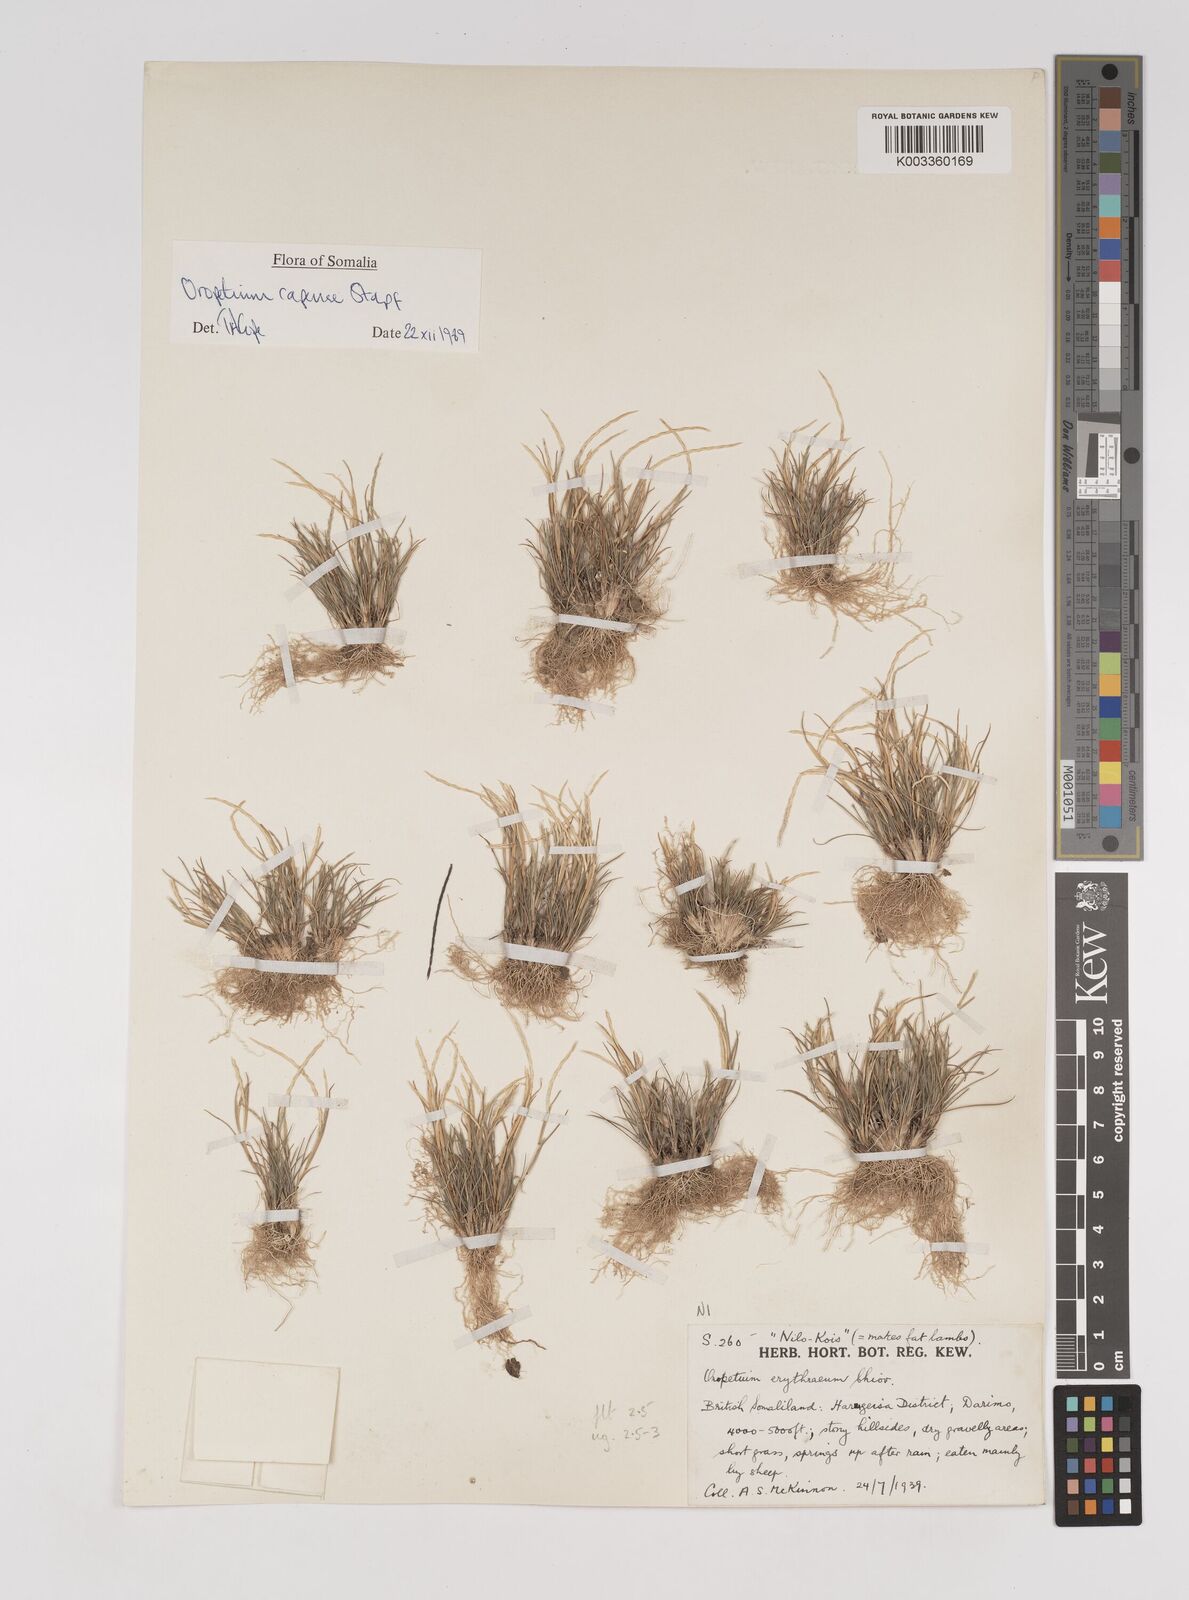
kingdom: Plantae
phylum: Tracheophyta
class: Liliopsida
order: Poales
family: Poaceae
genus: Oropetium
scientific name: Oropetium capense
